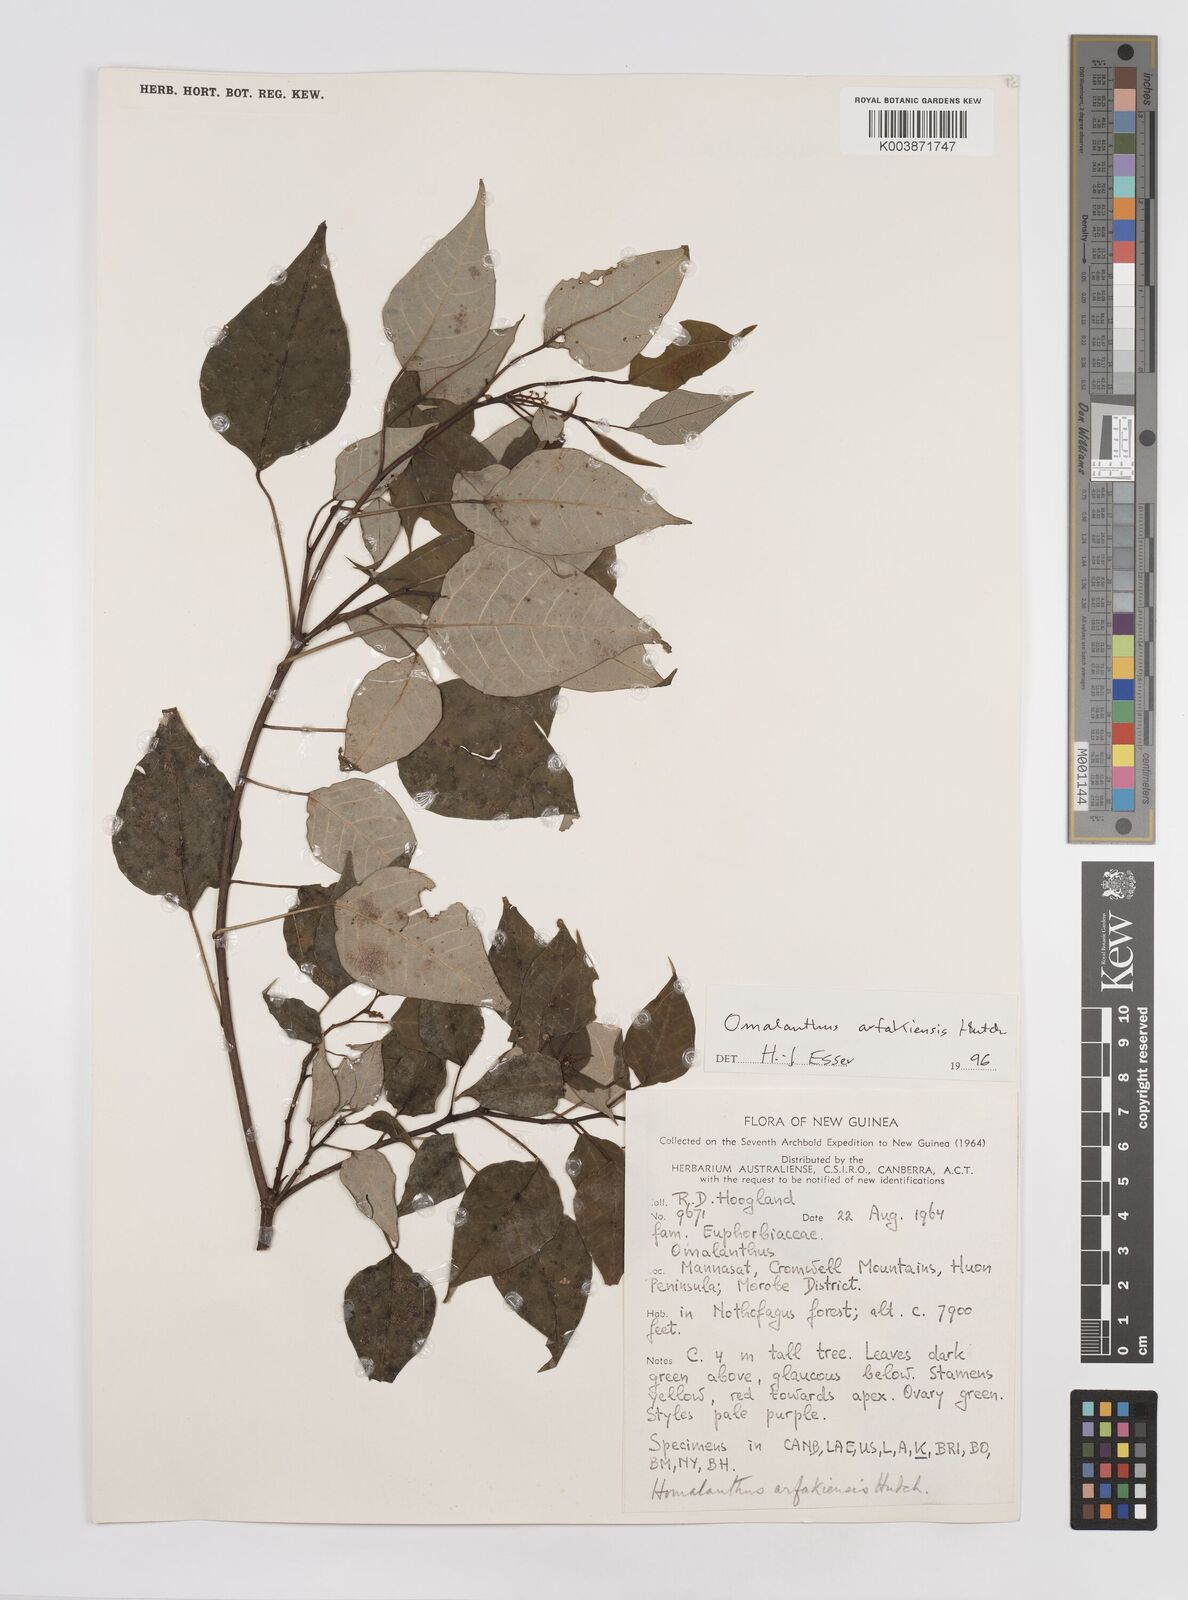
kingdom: Plantae
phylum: Tracheophyta
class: Magnoliopsida
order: Malpighiales
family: Euphorbiaceae
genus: Homalanthus
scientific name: Homalanthus arfakiensis
